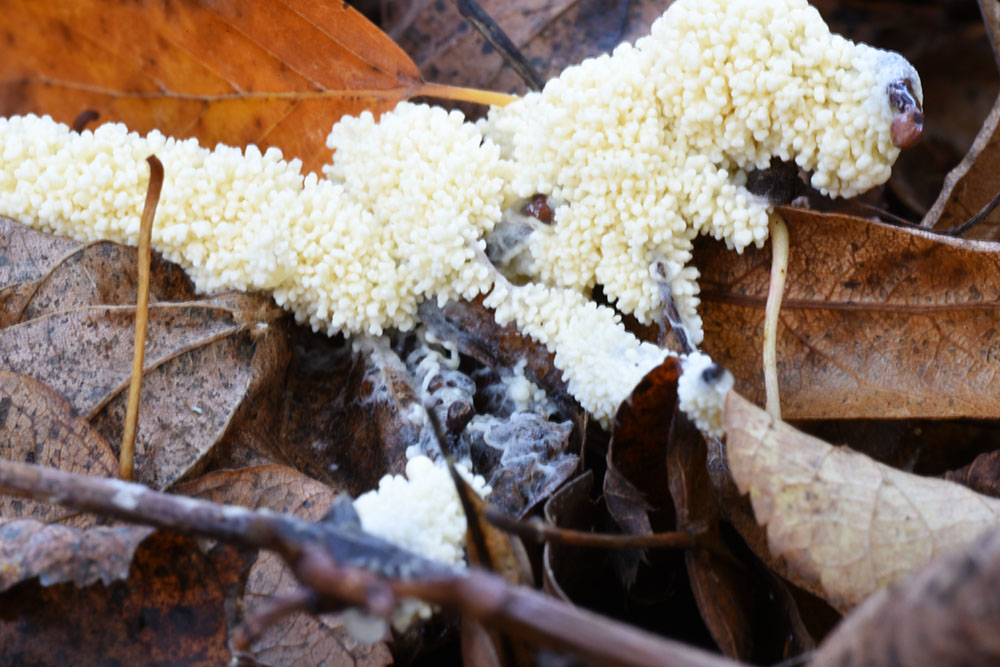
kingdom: Protozoa
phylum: Mycetozoa
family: Didymiidae
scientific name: Didymiidae
